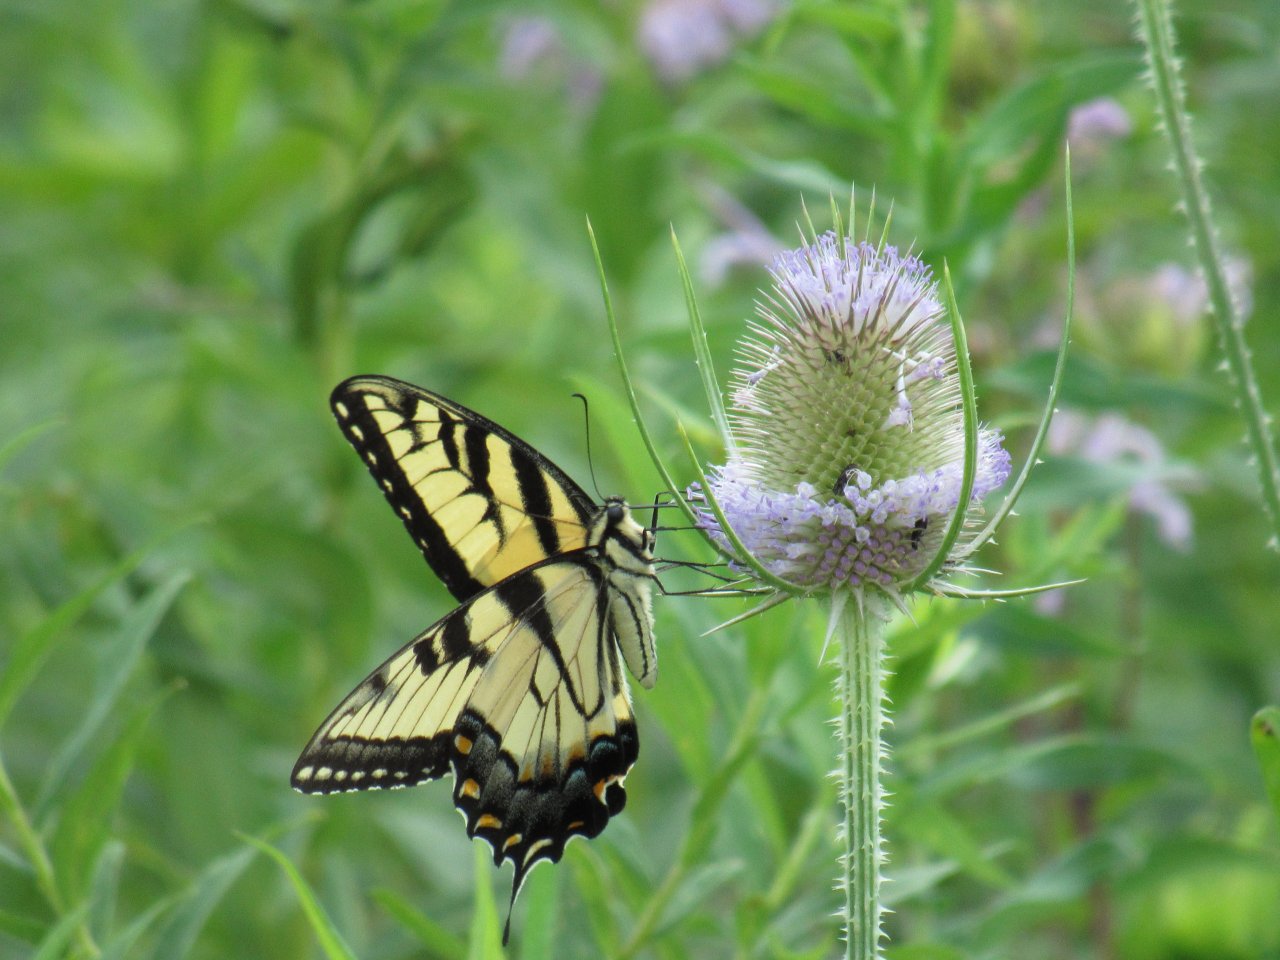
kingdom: Animalia
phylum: Arthropoda
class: Insecta
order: Lepidoptera
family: Papilionidae
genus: Pterourus
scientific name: Pterourus glaucus
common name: Eastern Tiger Swallowtail
